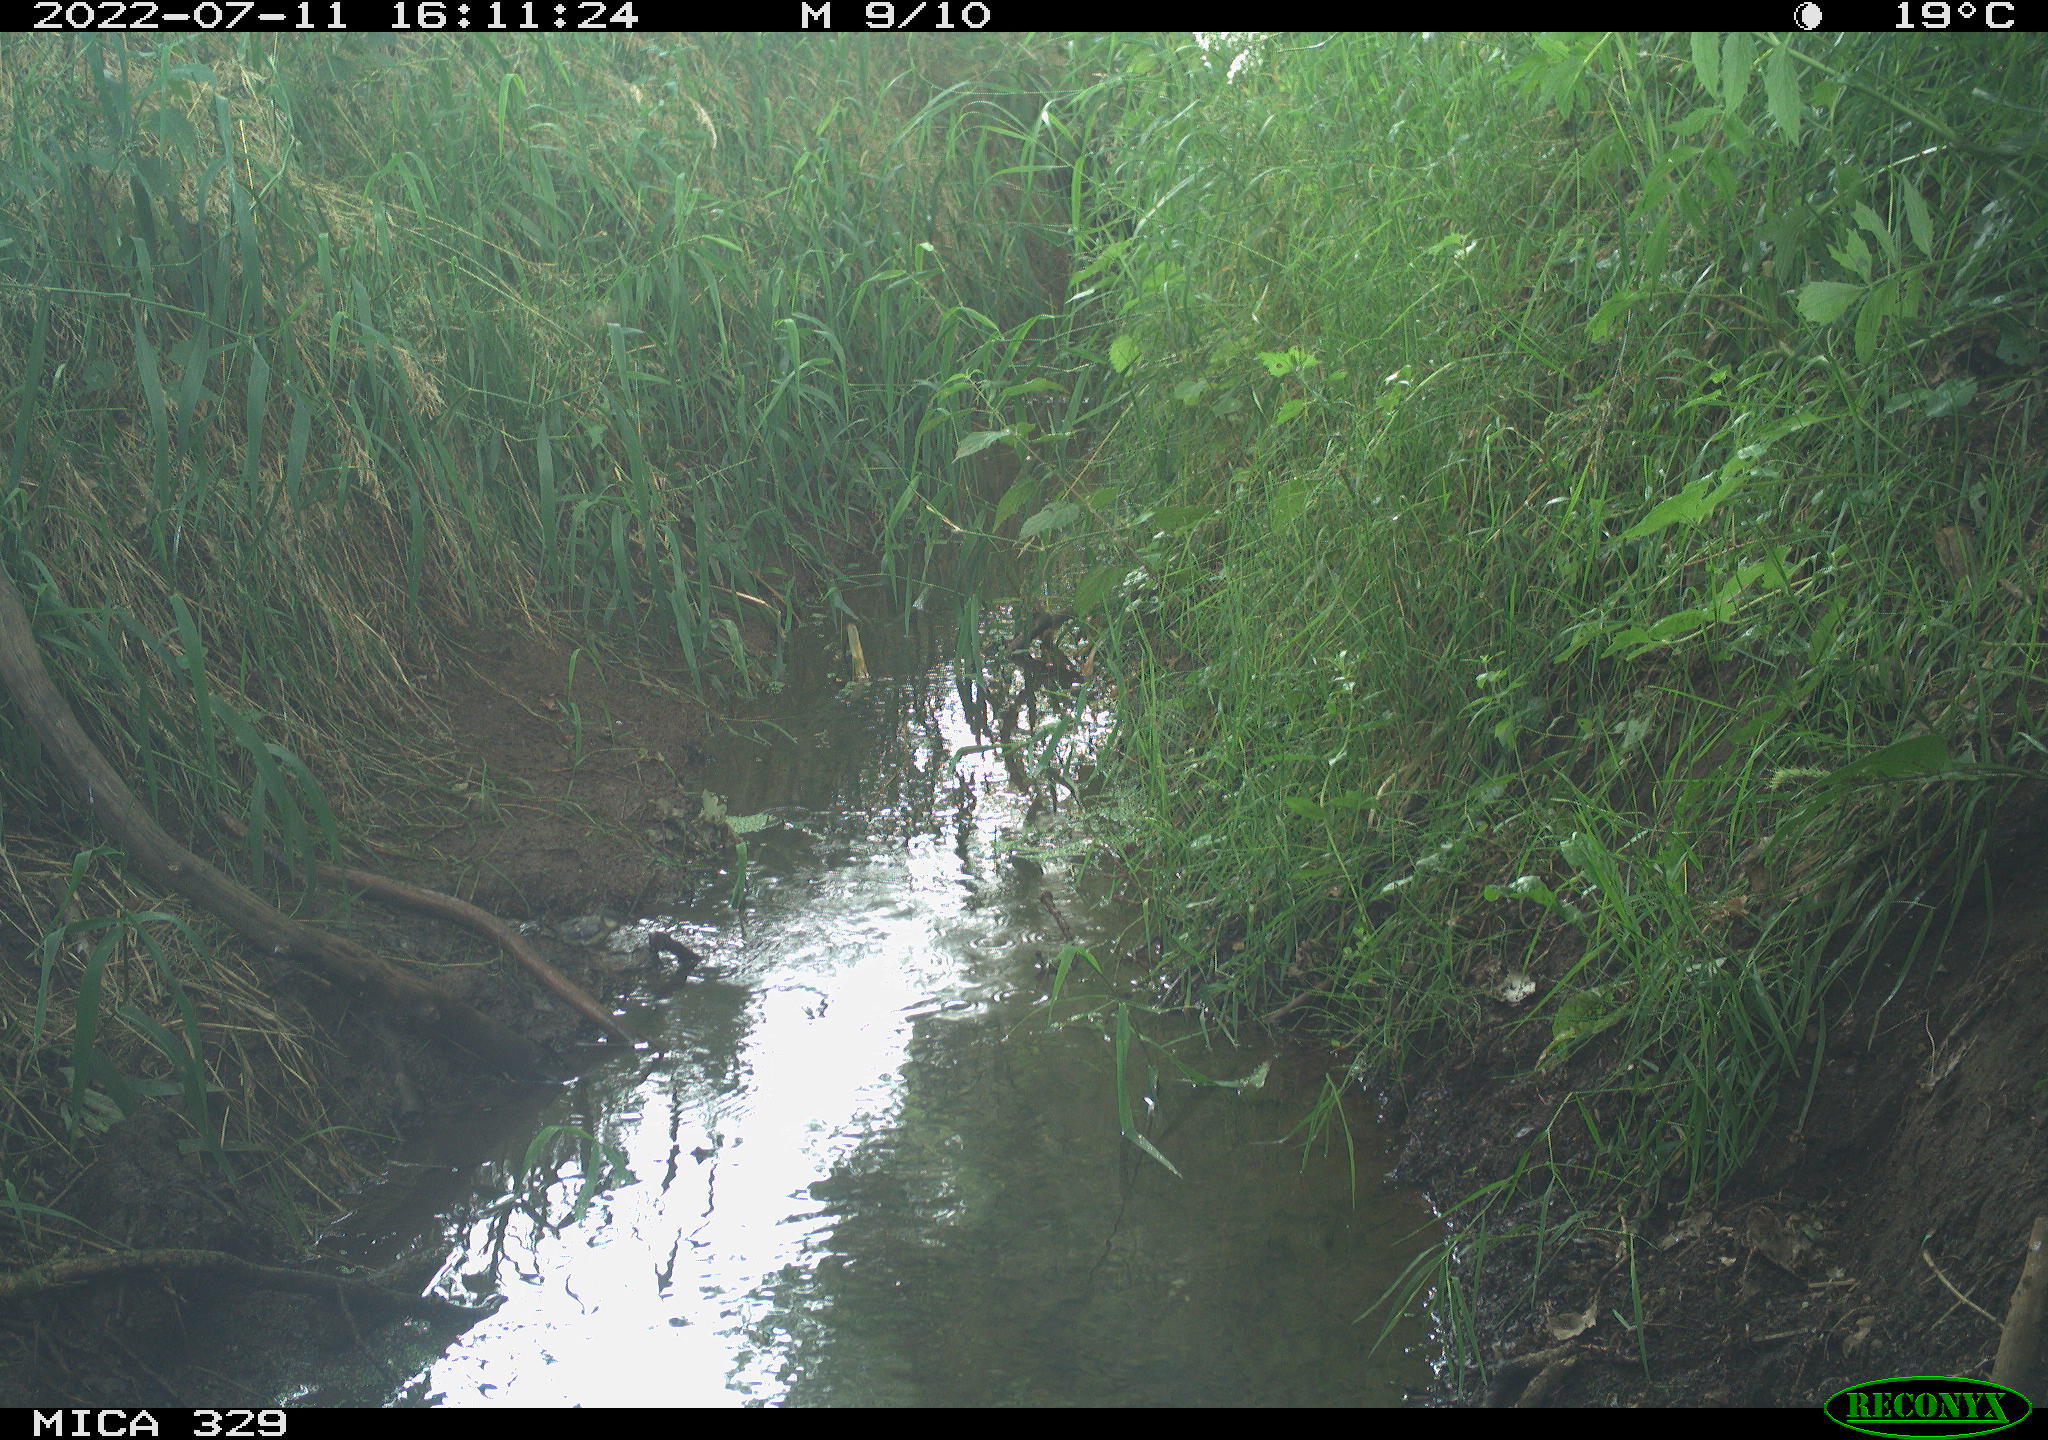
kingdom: Animalia
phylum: Chordata
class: Aves
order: Passeriformes
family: Paridae
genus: Parus
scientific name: Parus major
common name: Great tit
